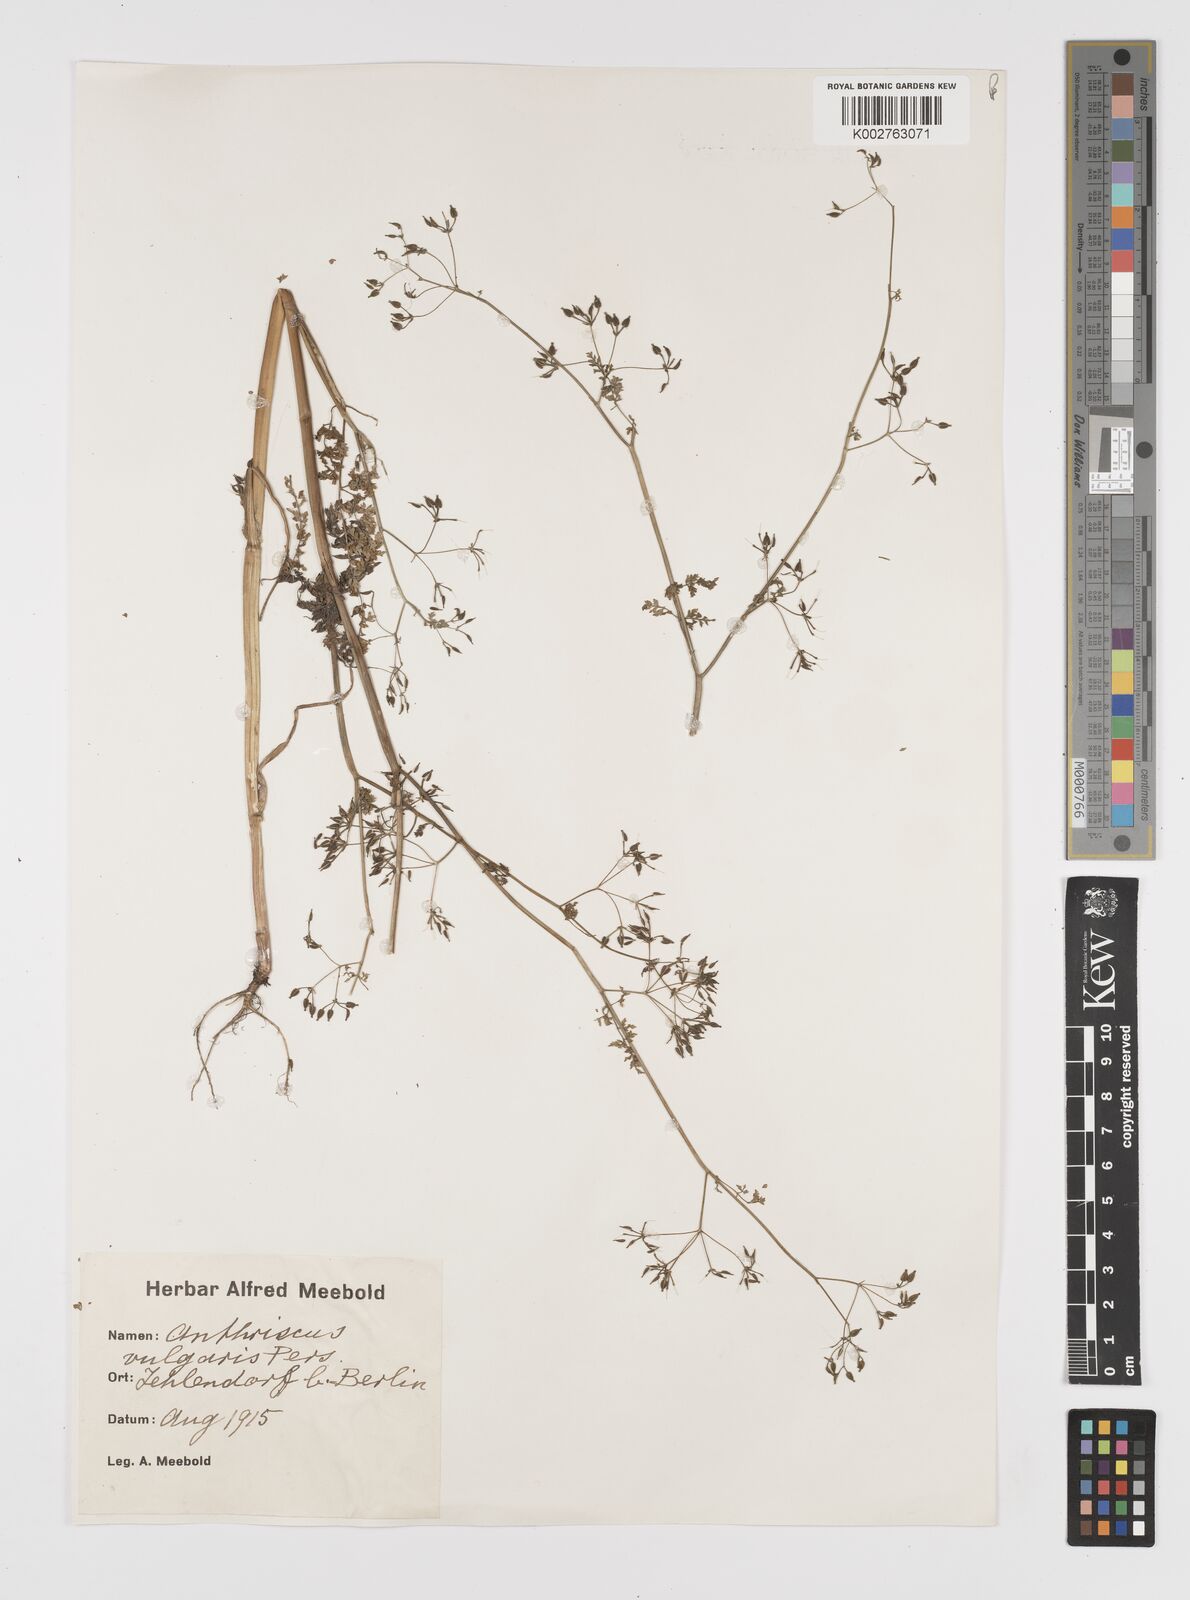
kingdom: Plantae
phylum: Tracheophyta
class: Magnoliopsida
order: Apiales
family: Apiaceae
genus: Anthriscus
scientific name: Anthriscus caucalis
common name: Bur chervil
